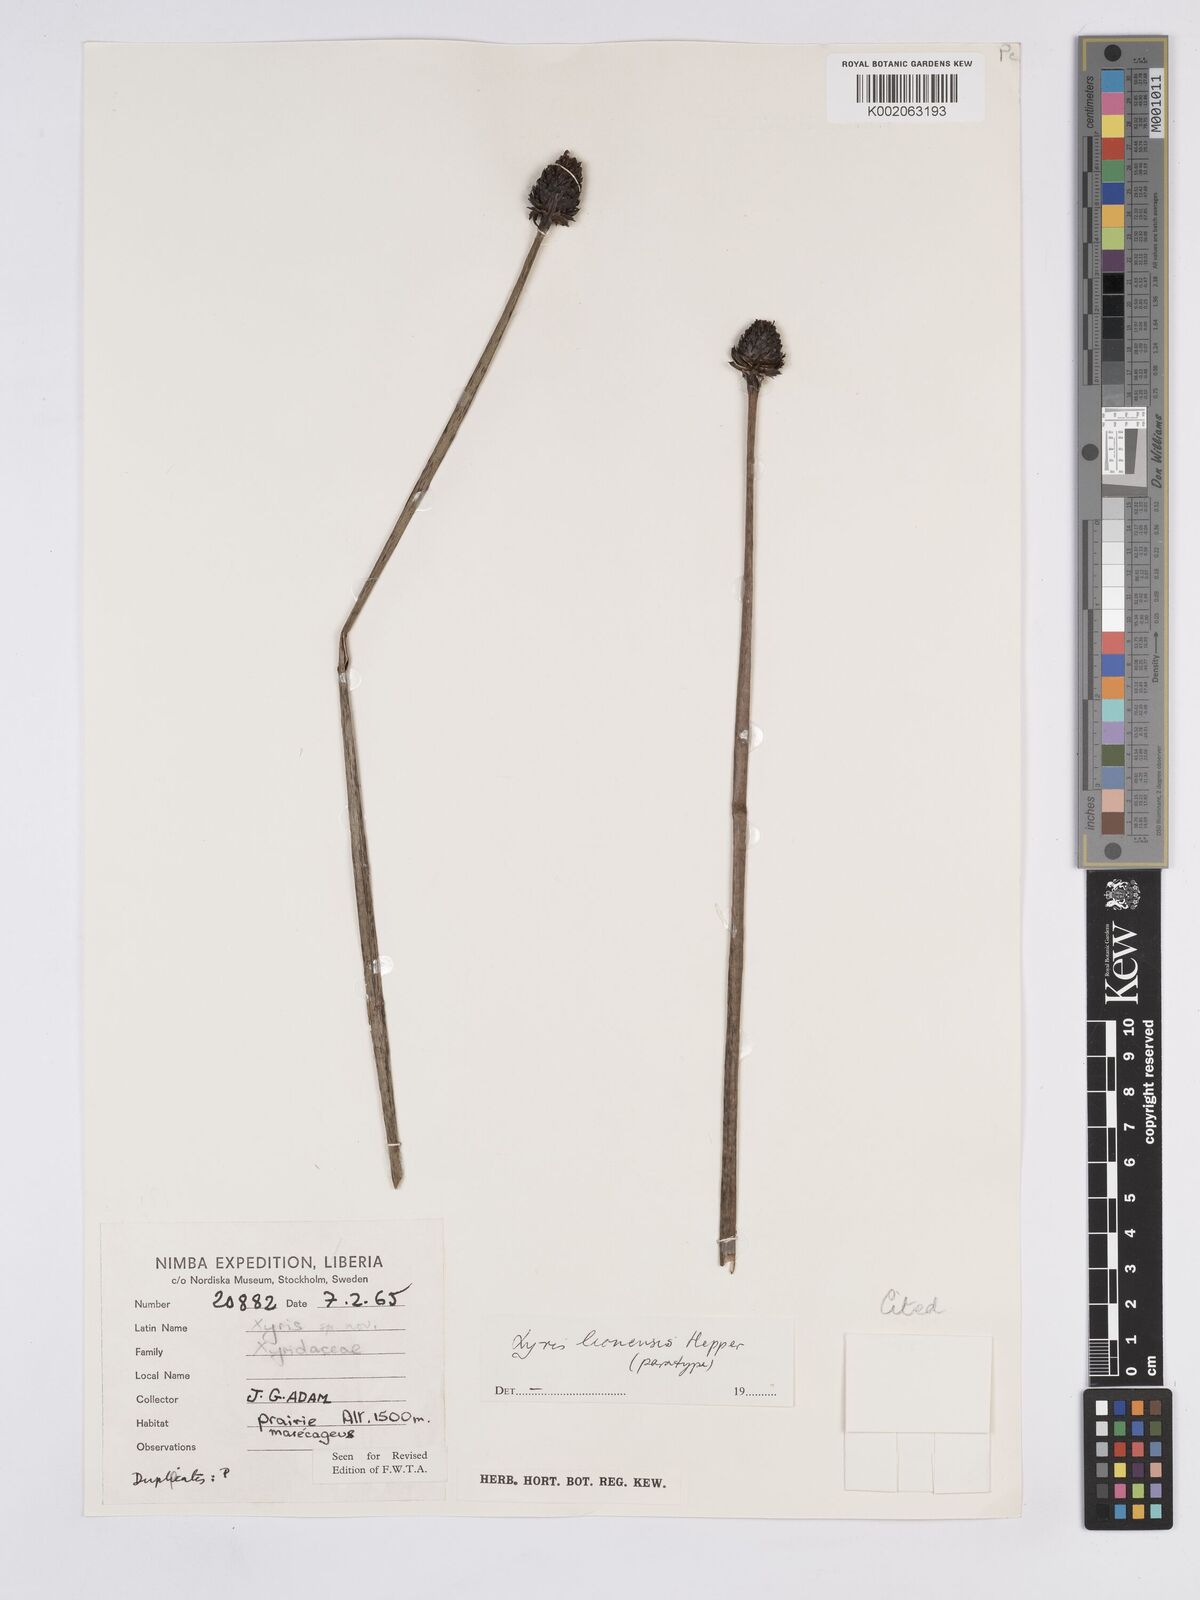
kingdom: Plantae
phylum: Tracheophyta
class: Liliopsida
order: Poales
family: Xyridaceae
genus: Xyris
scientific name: Xyris leonensis
